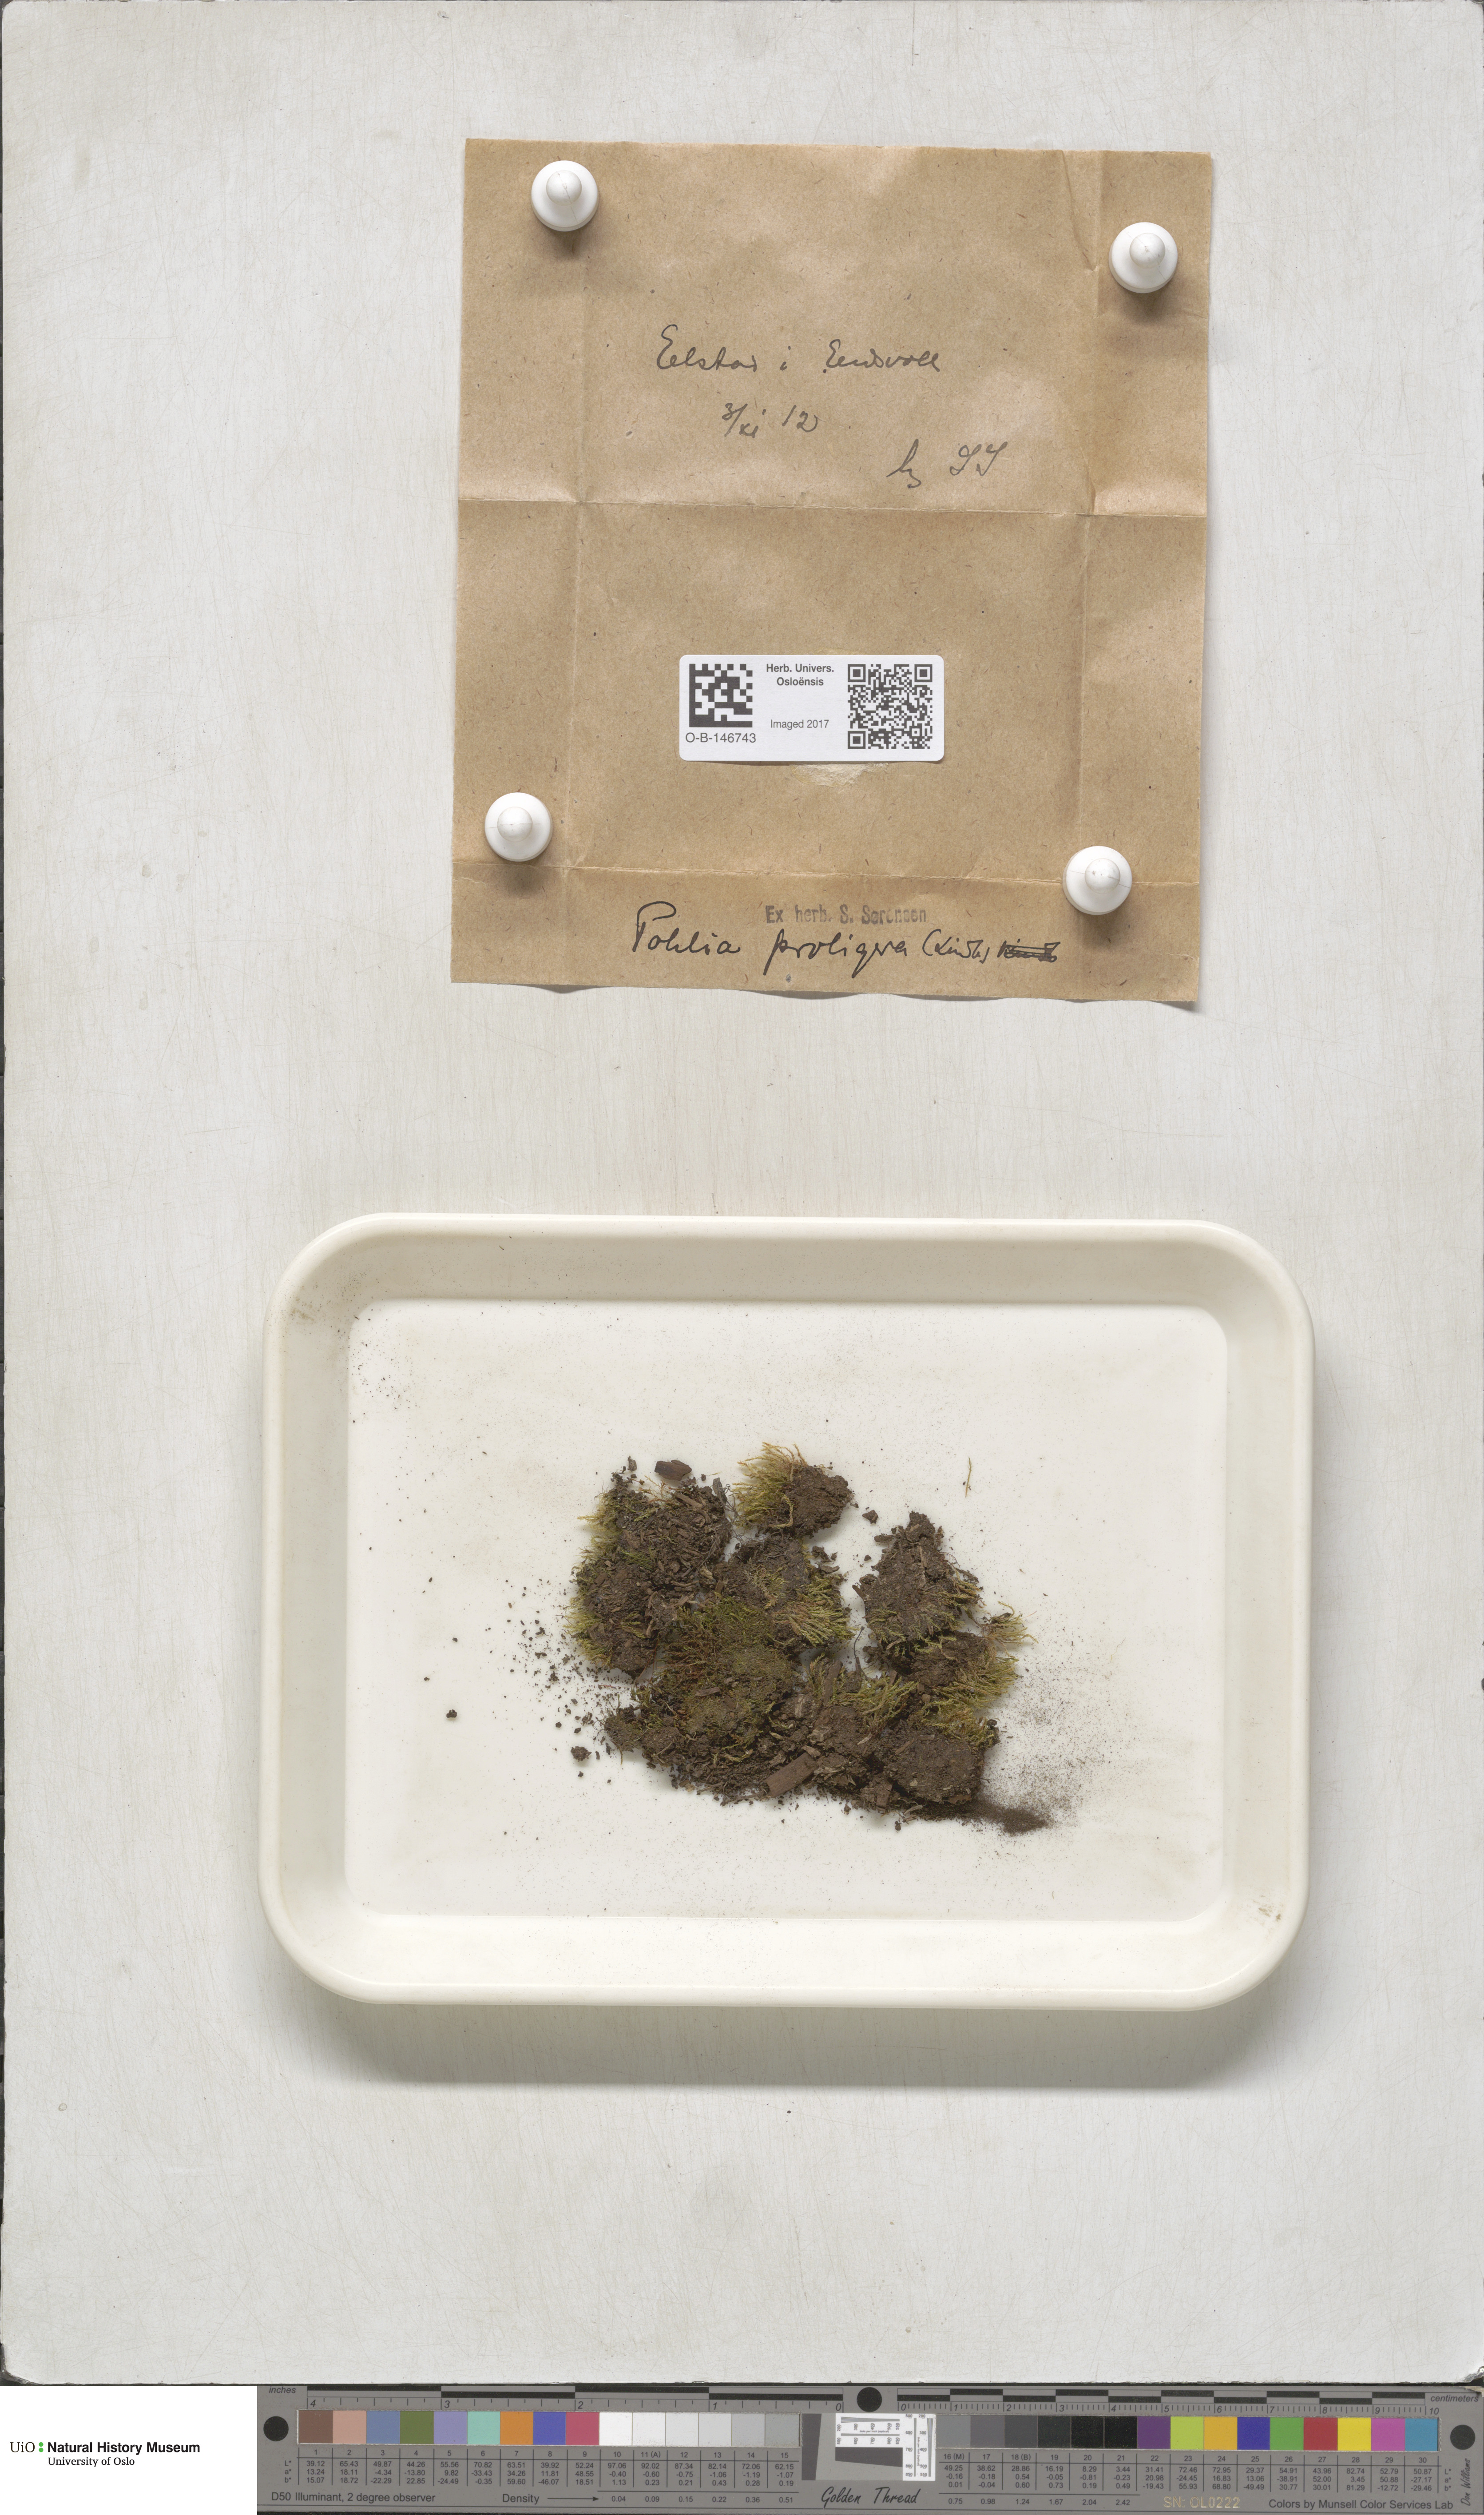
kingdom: Plantae
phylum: Bryophyta
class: Bryopsida
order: Bryales
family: Mniaceae
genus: Pohlia
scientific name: Pohlia proligera
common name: Cottony nodding moss
